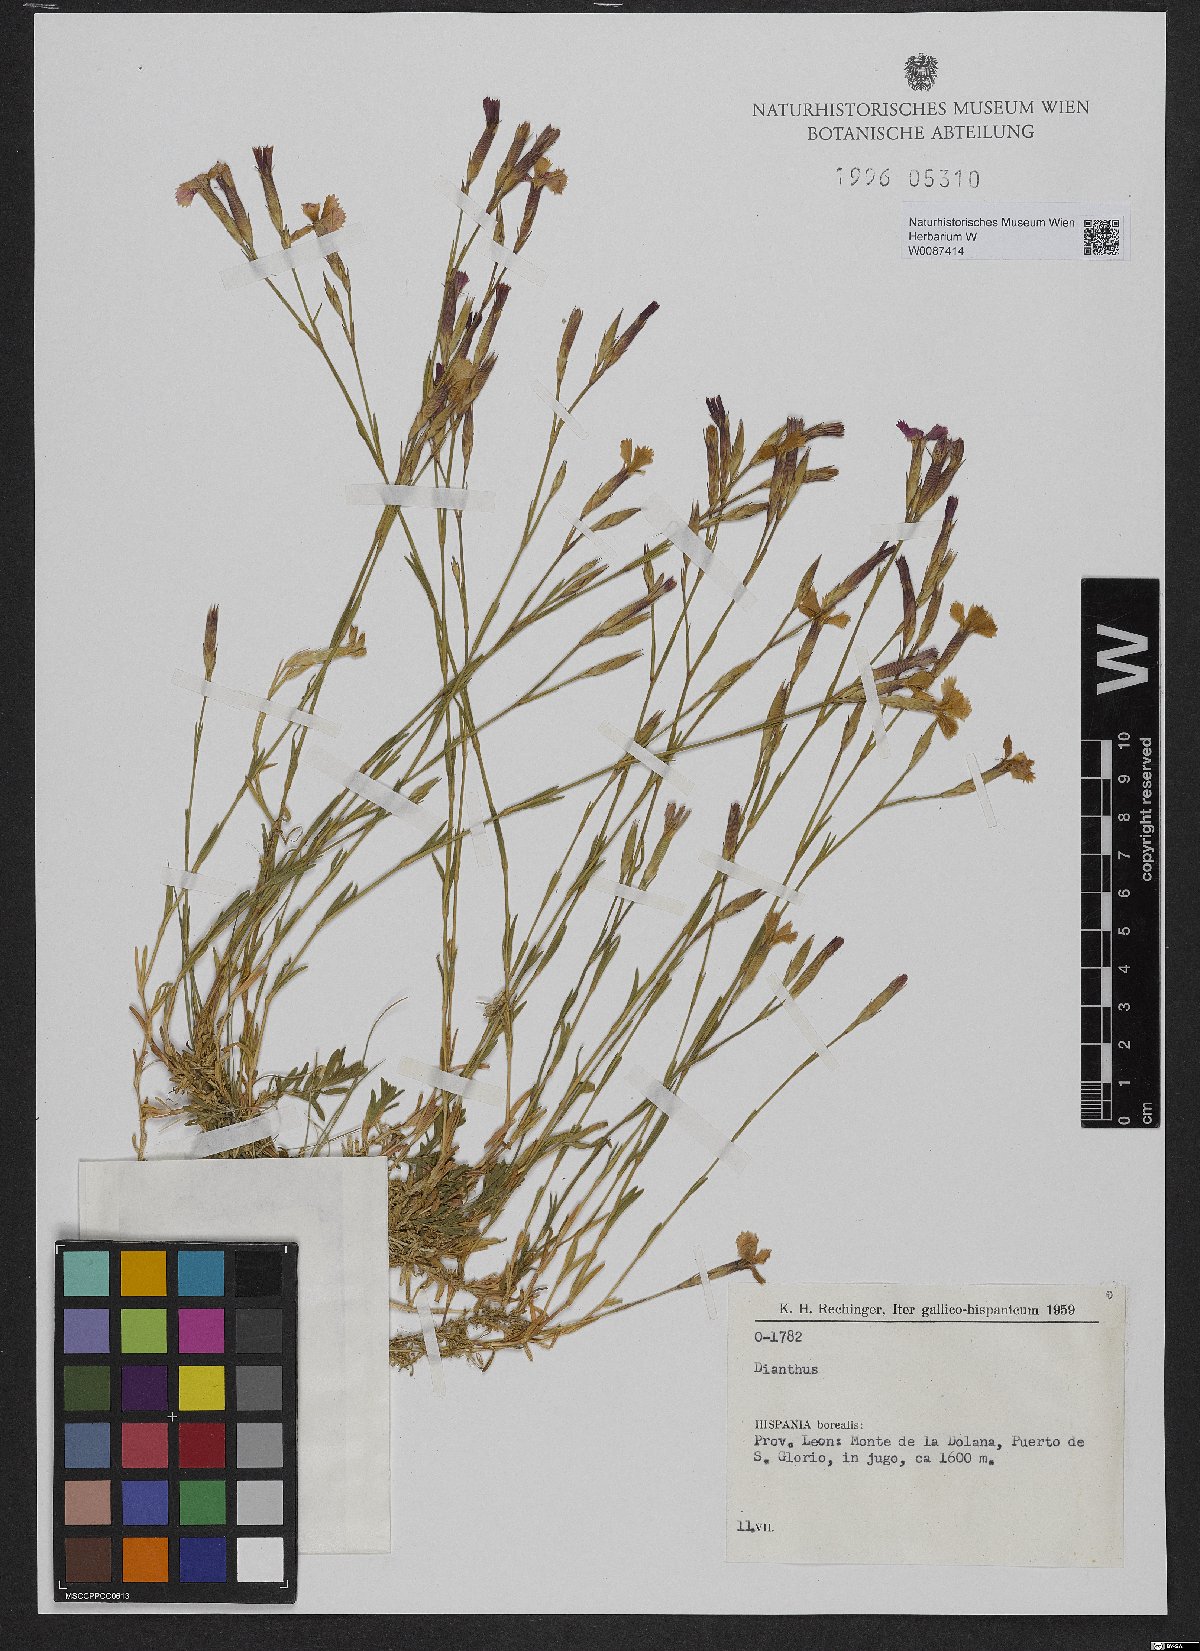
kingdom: Plantae
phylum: Tracheophyta
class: Magnoliopsida
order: Caryophyllales
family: Caryophyllaceae
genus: Dianthus
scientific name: Dianthus
